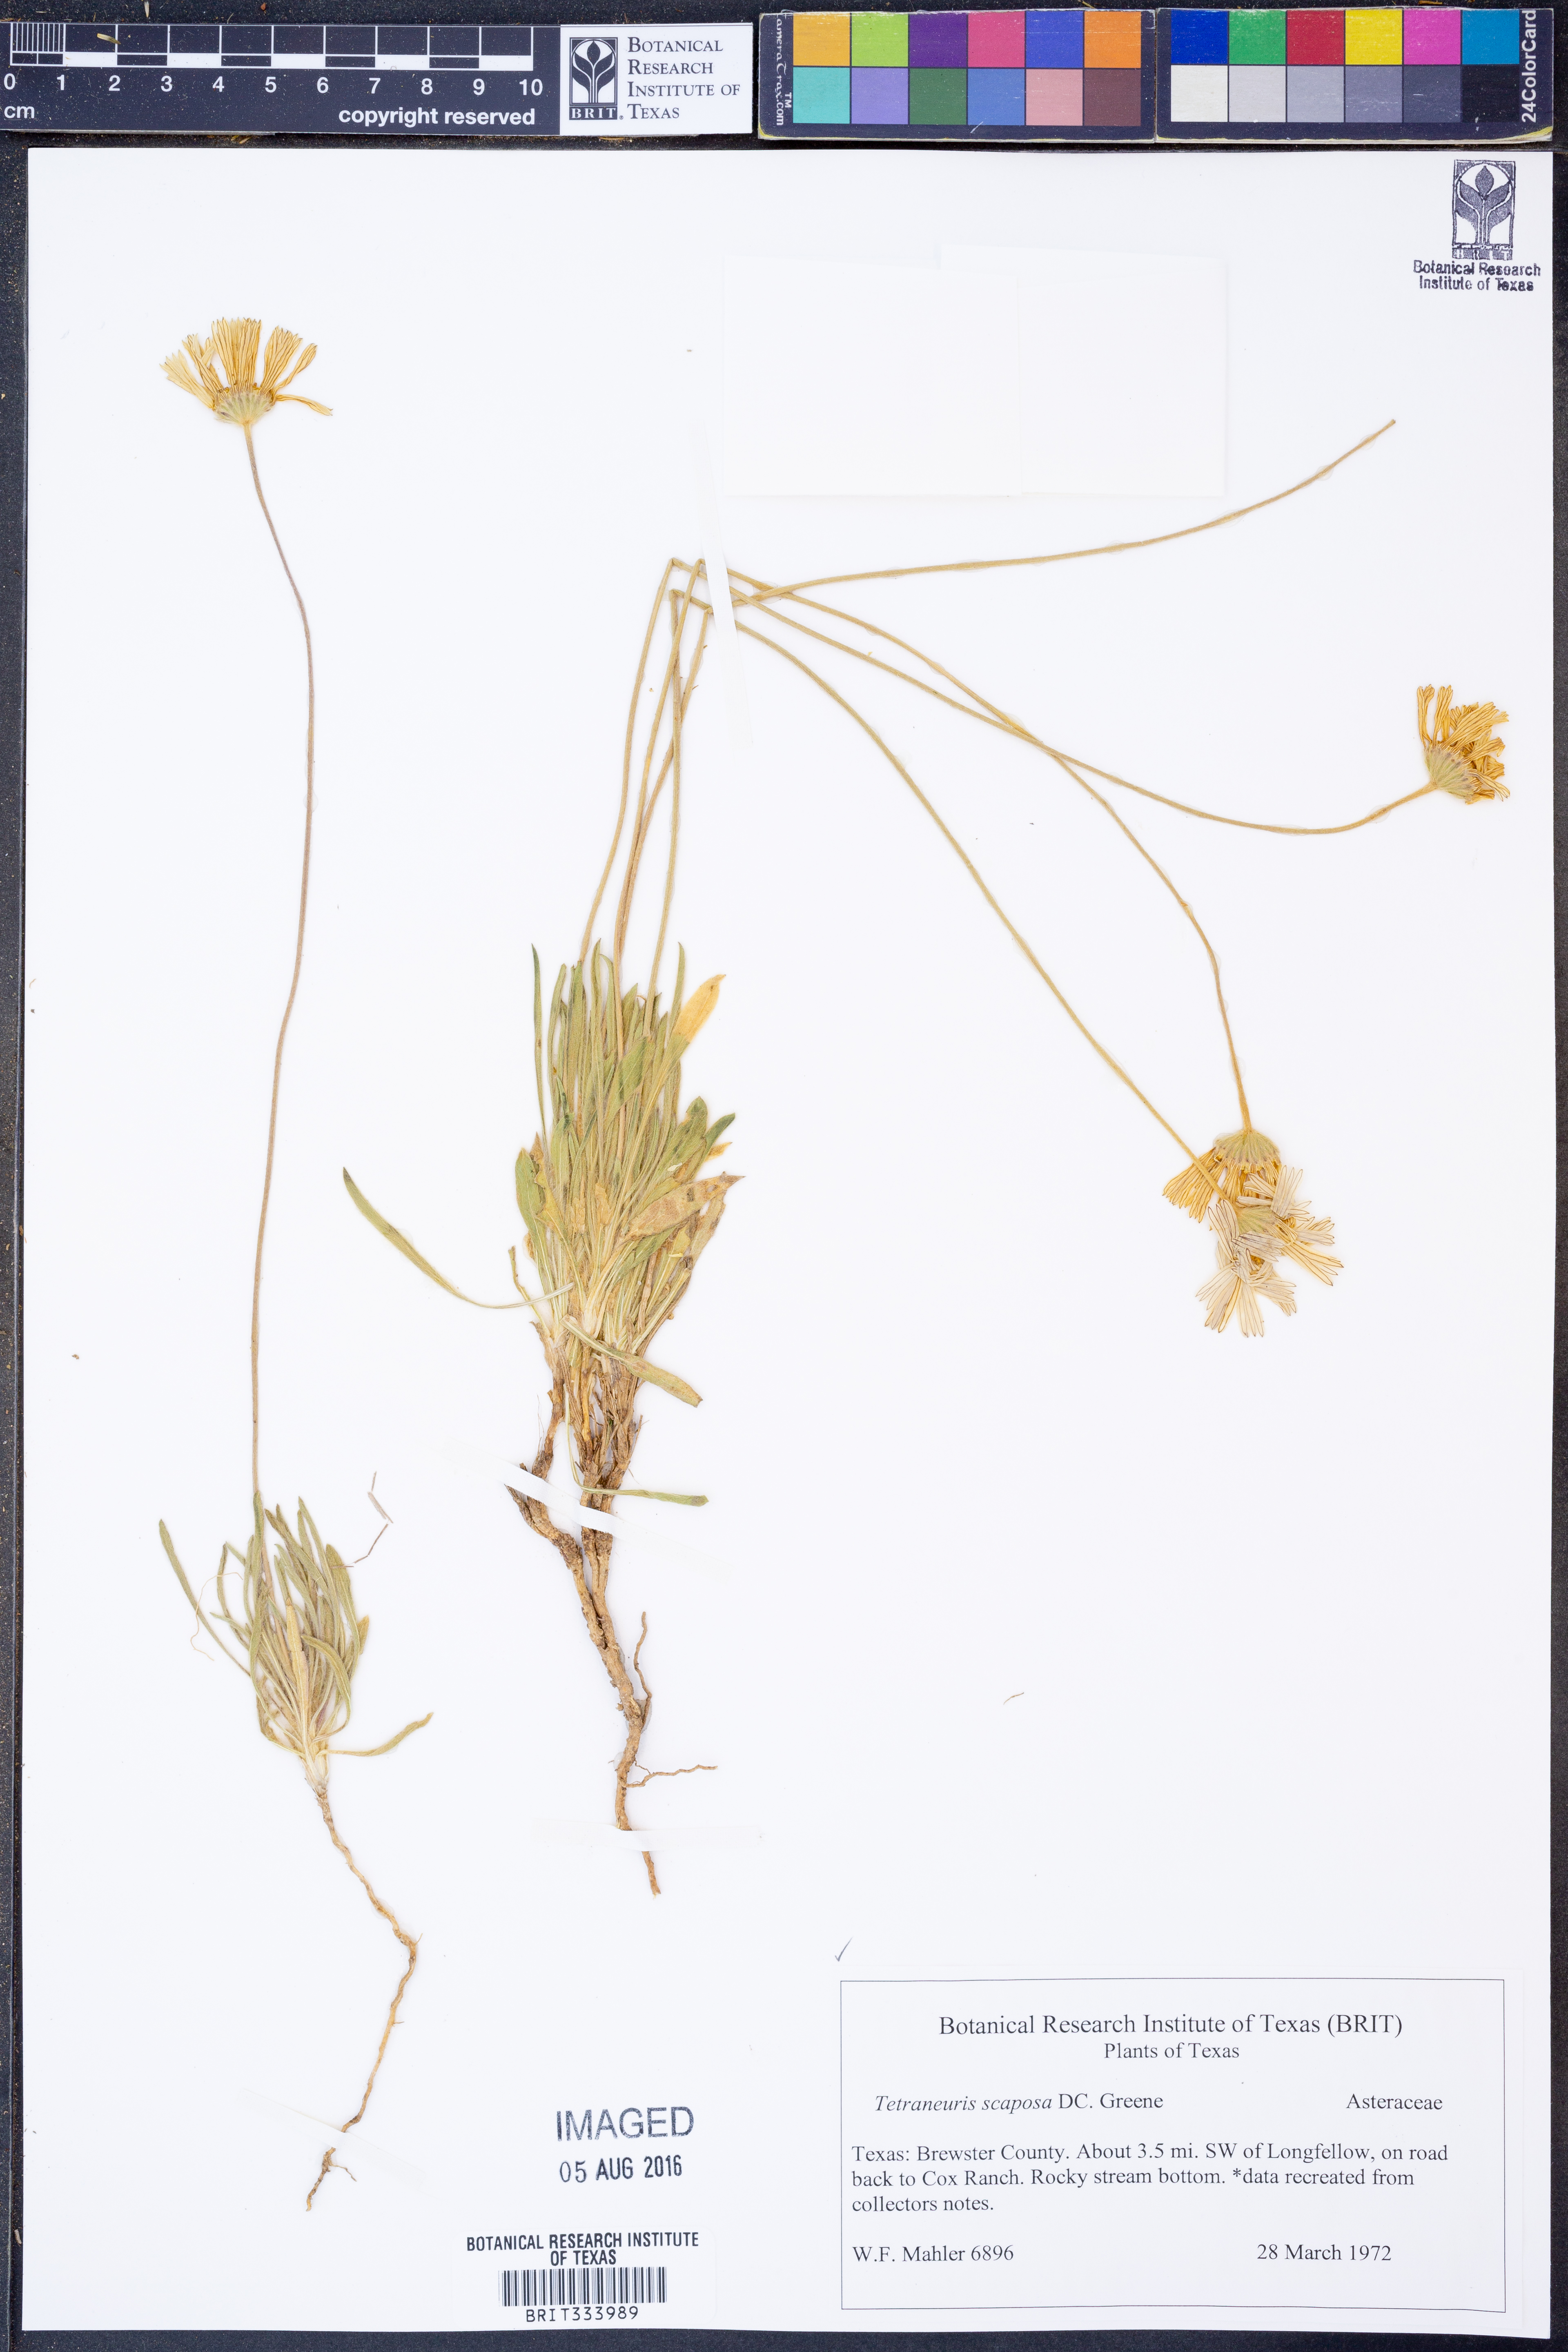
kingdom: Plantae
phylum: Tracheophyta
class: Magnoliopsida
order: Asterales
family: Asteraceae
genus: Tetraneuris
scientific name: Tetraneuris scaposa
